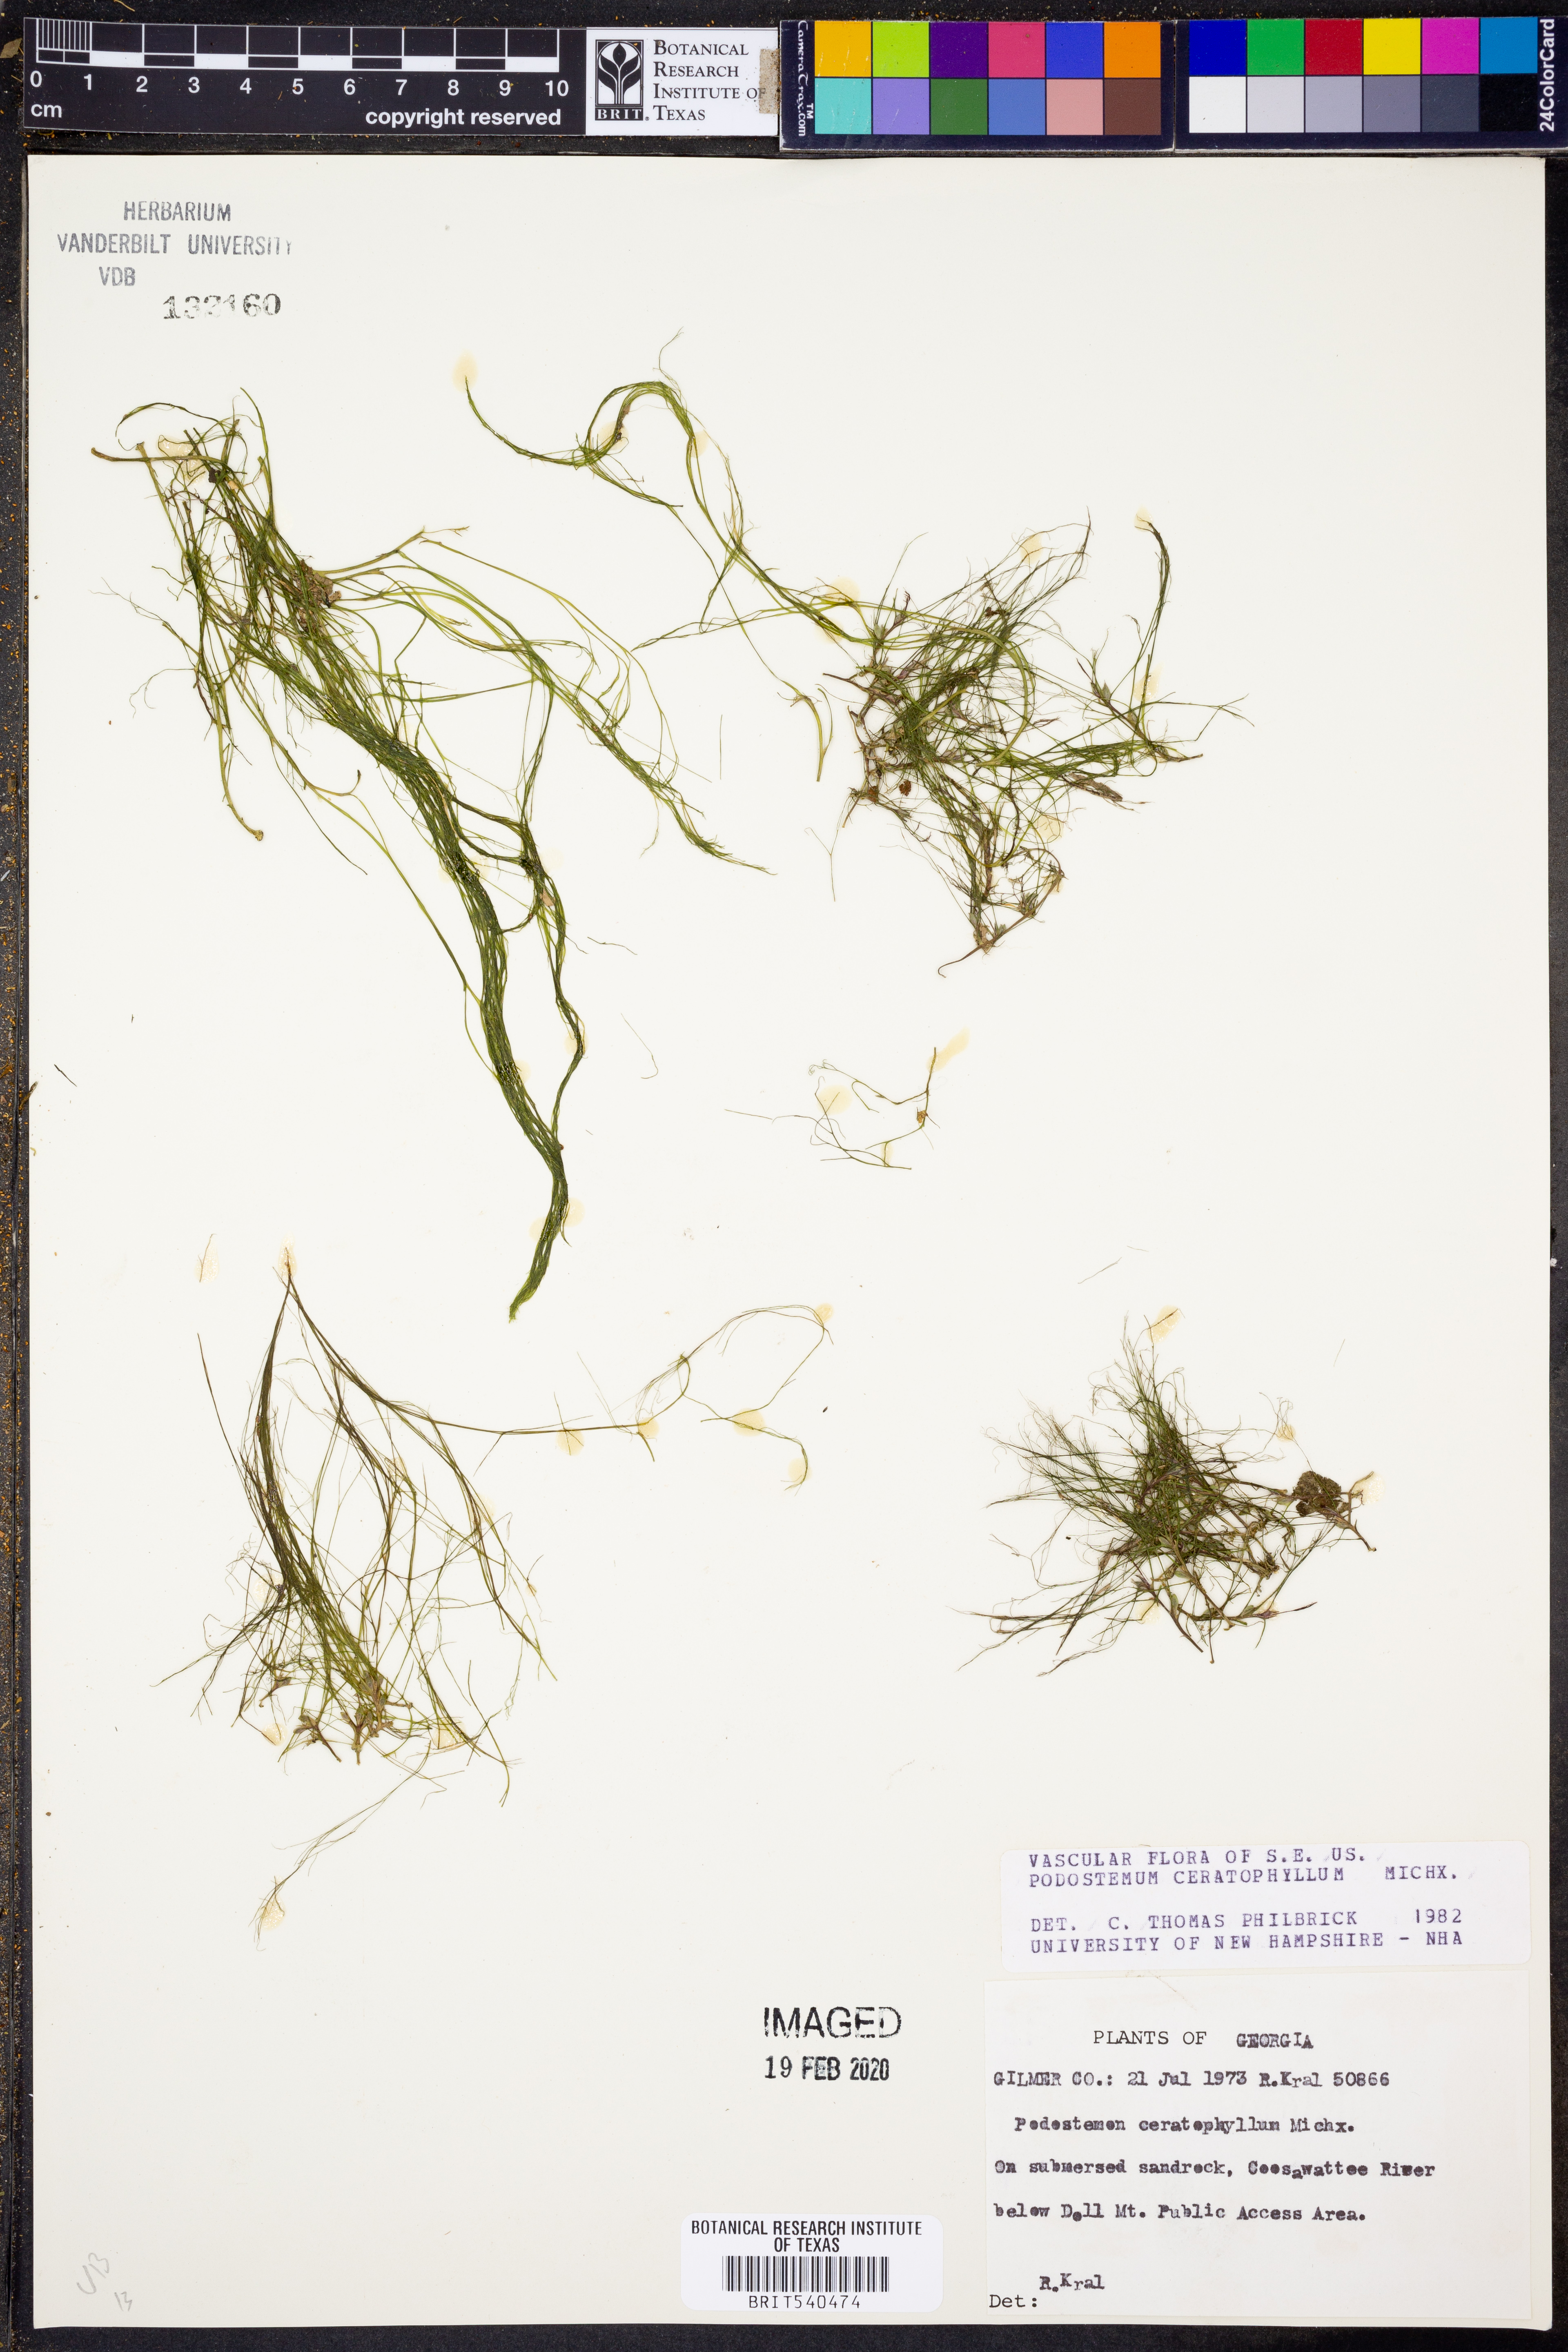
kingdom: Plantae
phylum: Tracheophyta
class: Magnoliopsida
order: Malpighiales
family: Podostemaceae
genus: Podostemum
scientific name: Podostemum ceratophyllum
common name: Horn-leaved riverweed
